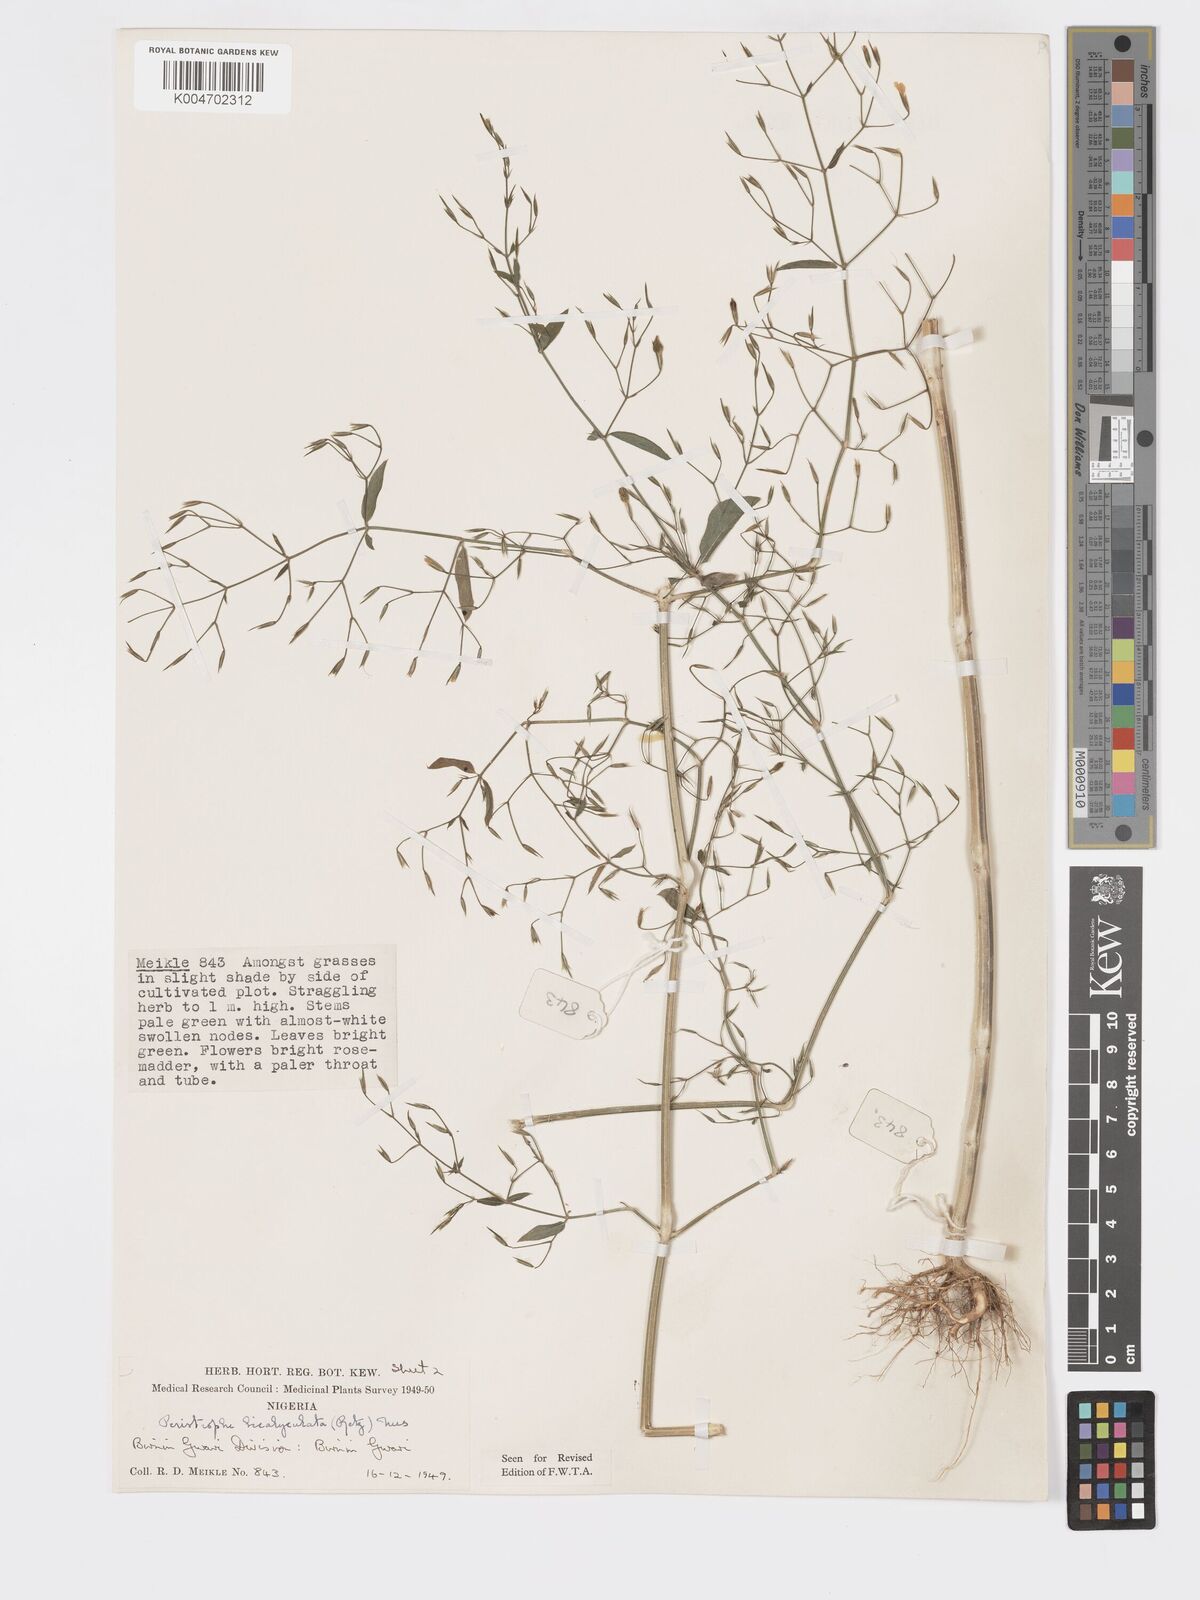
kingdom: Plantae
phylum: Tracheophyta
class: Magnoliopsida
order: Lamiales
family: Acanthaceae
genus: Dicliptera
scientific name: Dicliptera paniculata
